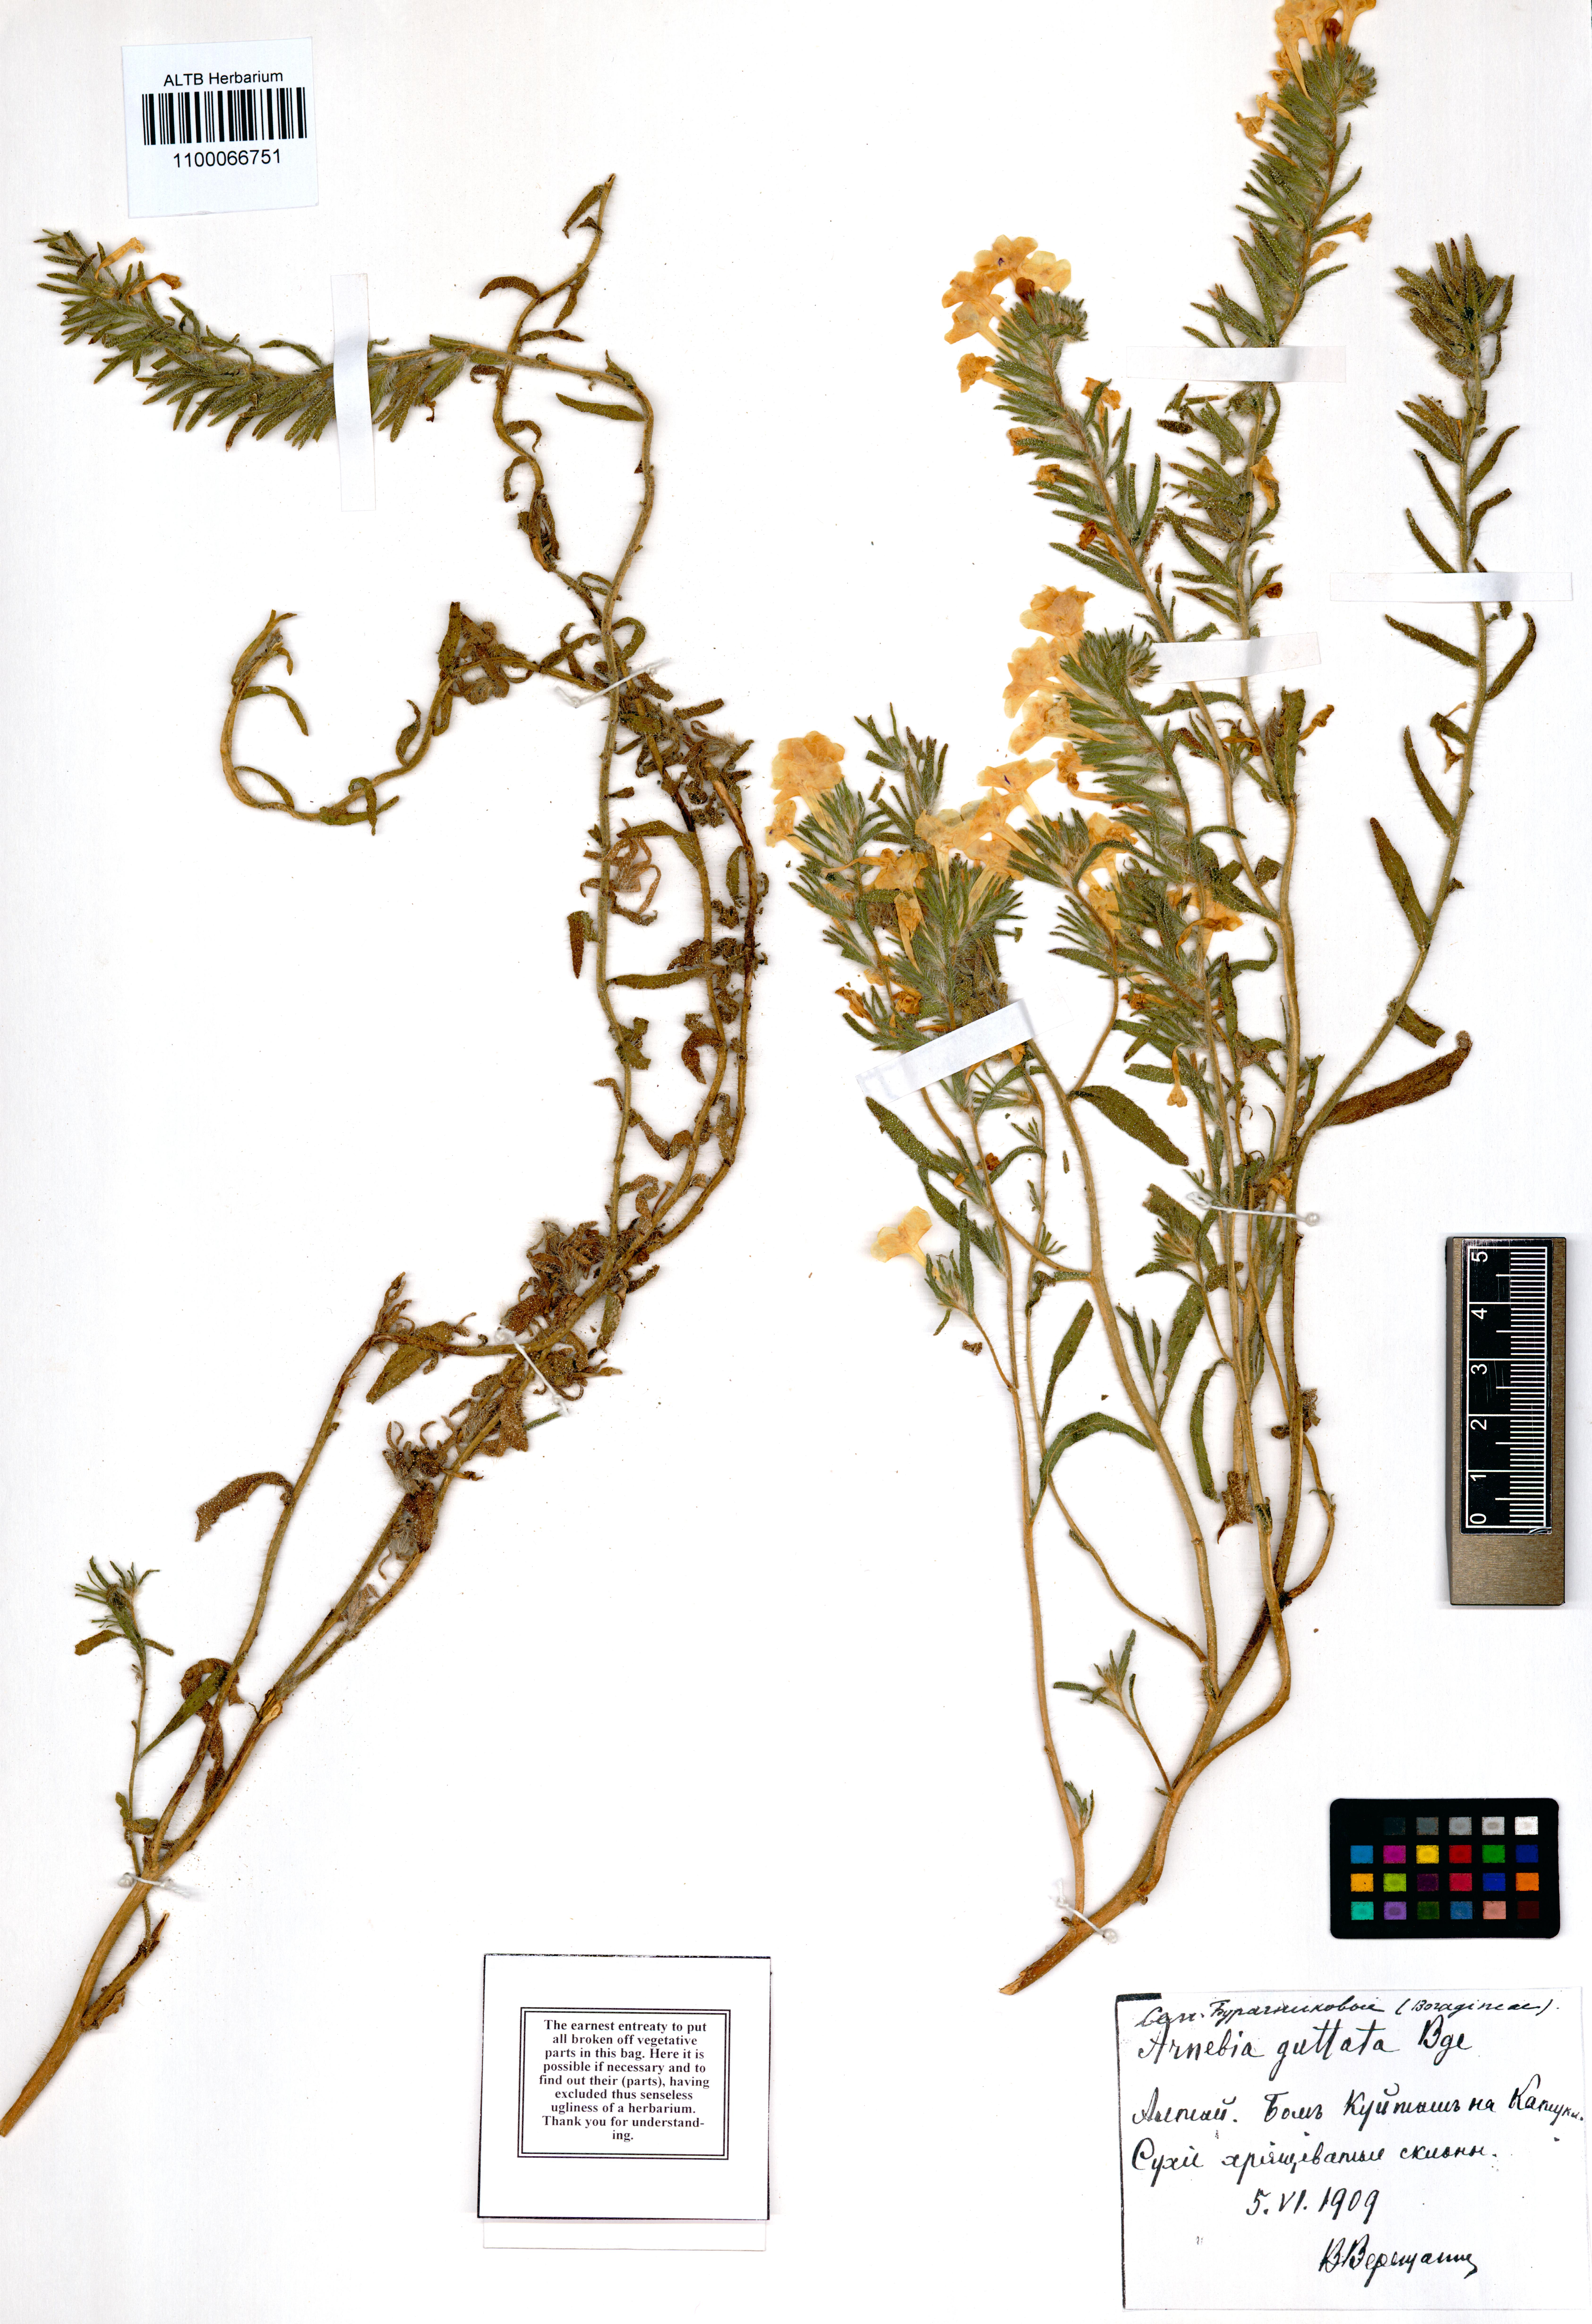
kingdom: Plantae
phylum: Tracheophyta
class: Magnoliopsida
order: Boraginales
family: Boraginaceae
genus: Arnebia
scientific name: Arnebia guttata
